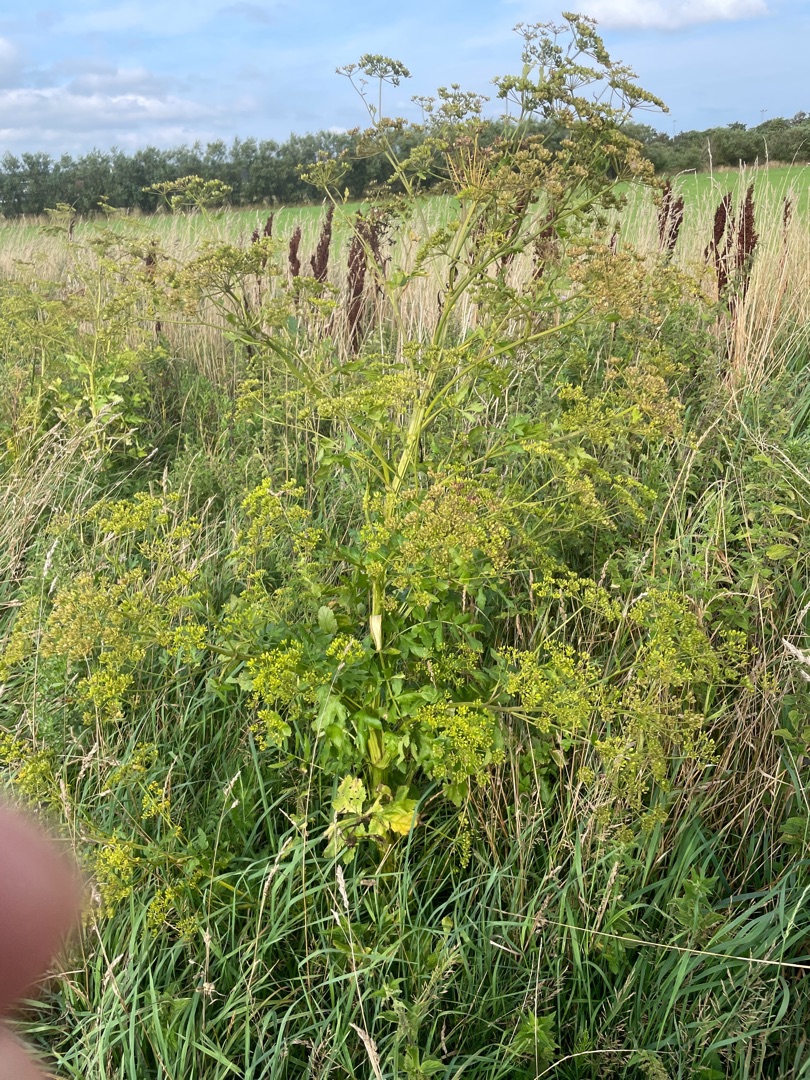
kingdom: Plantae
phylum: Tracheophyta
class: Magnoliopsida
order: Apiales
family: Apiaceae
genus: Pastinaca
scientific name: Pastinaca sativa
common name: Pastinak
